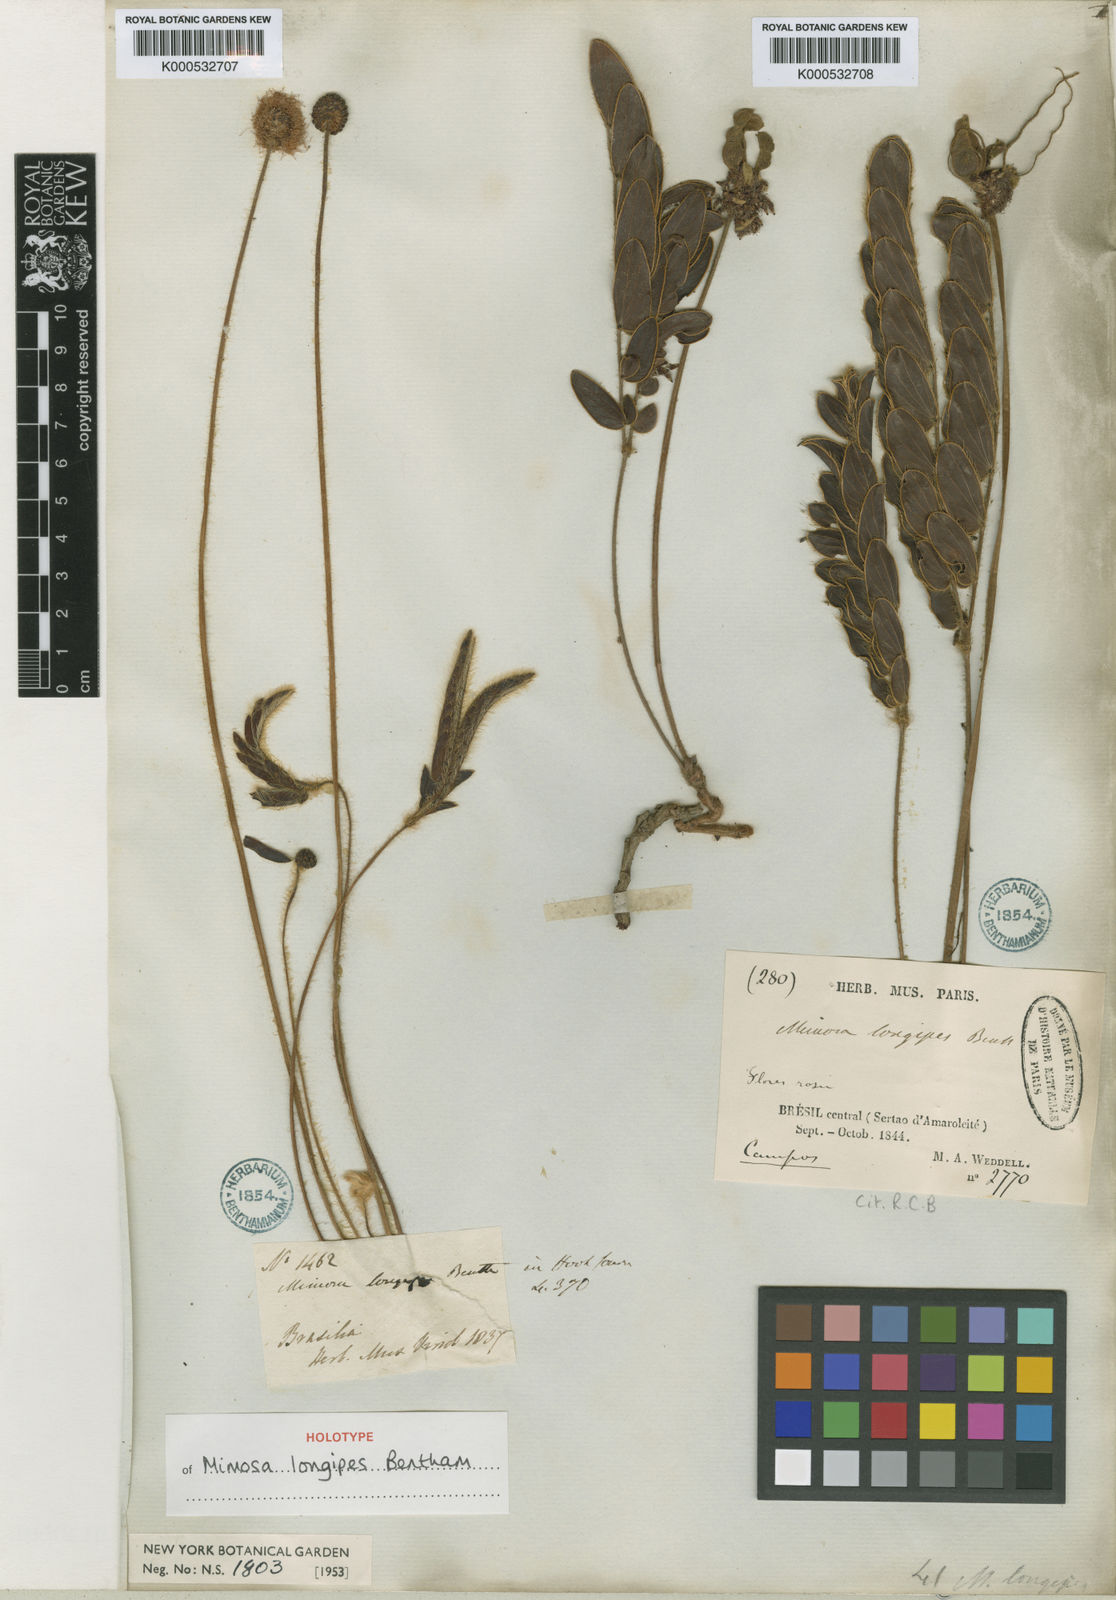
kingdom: Plantae
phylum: Tracheophyta
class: Magnoliopsida
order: Fabales
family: Fabaceae
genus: Mimosa
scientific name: Mimosa longipes
